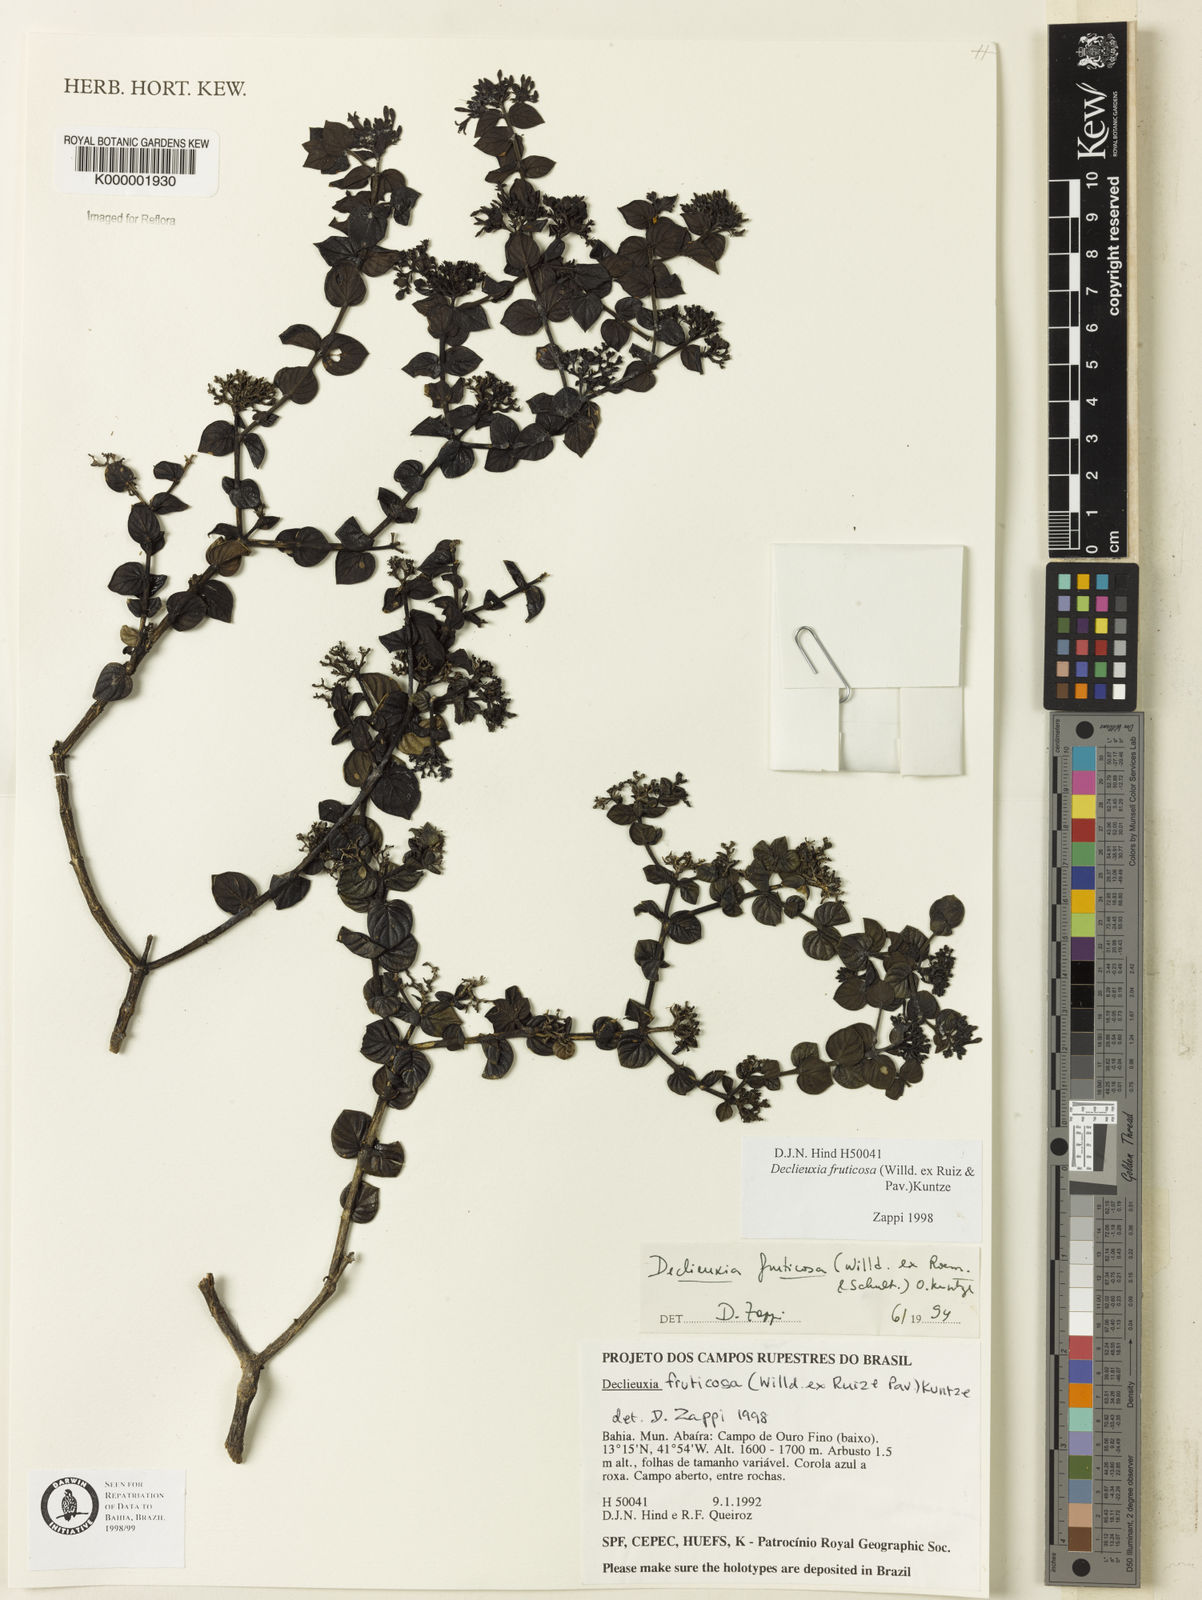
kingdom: Plantae
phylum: Tracheophyta
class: Magnoliopsida
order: Gentianales
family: Rubiaceae
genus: Declieuxia
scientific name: Declieuxia fruticosa
